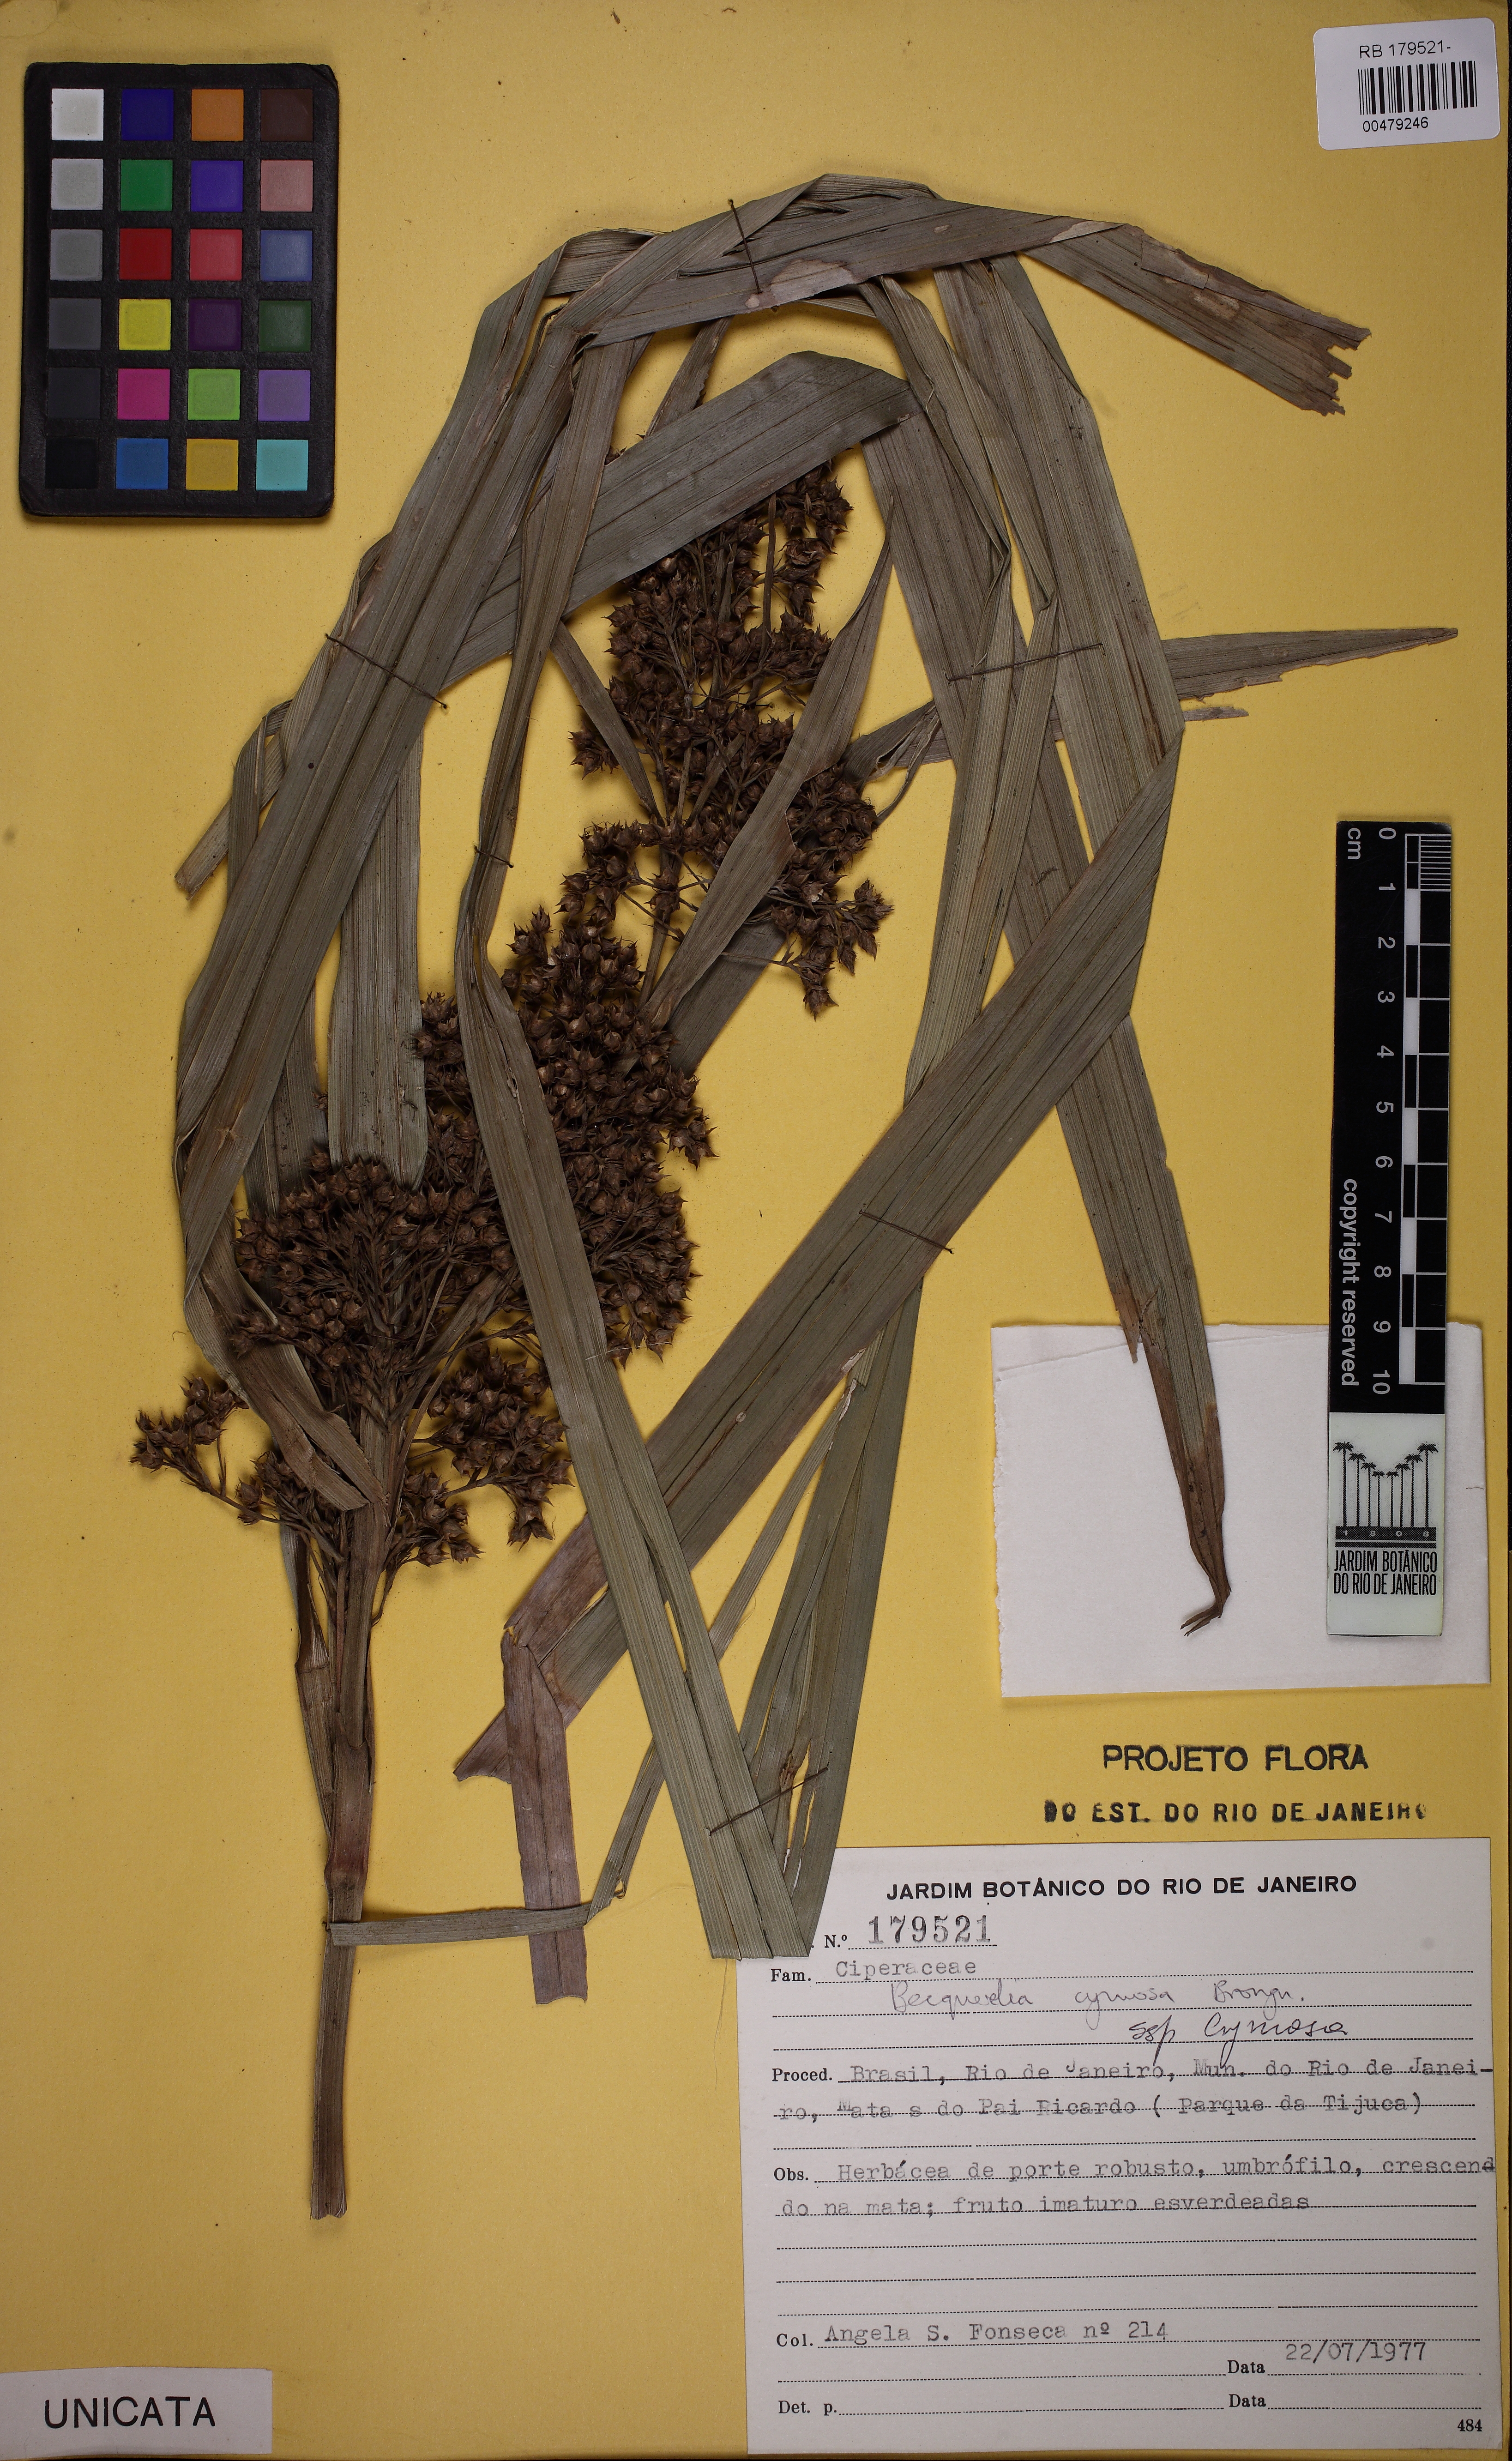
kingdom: Plantae
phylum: Tracheophyta
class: Liliopsida
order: Poales
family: Cyperaceae
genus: Becquerelia
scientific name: Becquerelia cymosa
